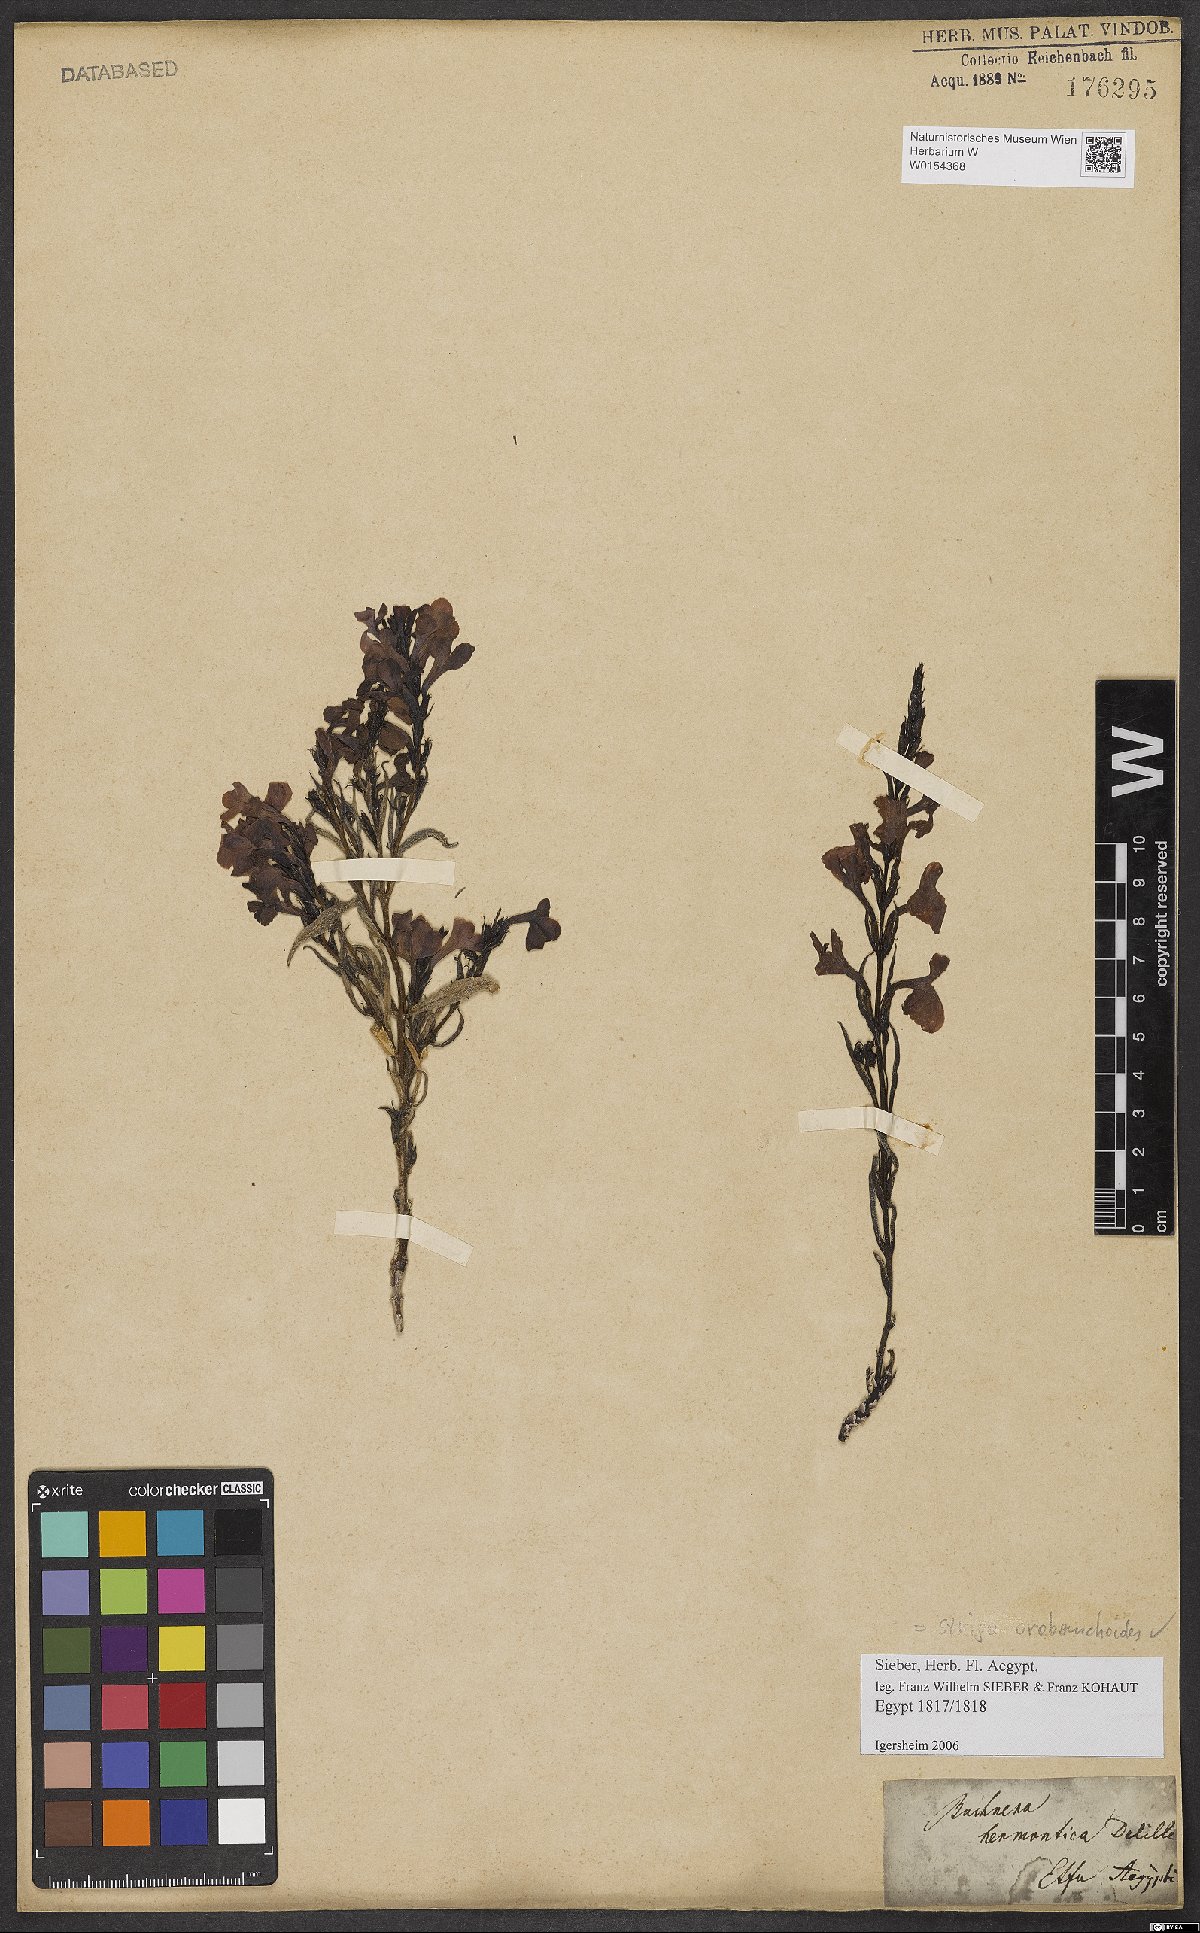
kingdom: Plantae
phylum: Tracheophyta
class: Magnoliopsida
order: Lamiales
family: Orobanchaceae
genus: Striga
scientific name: Striga barthlottii
